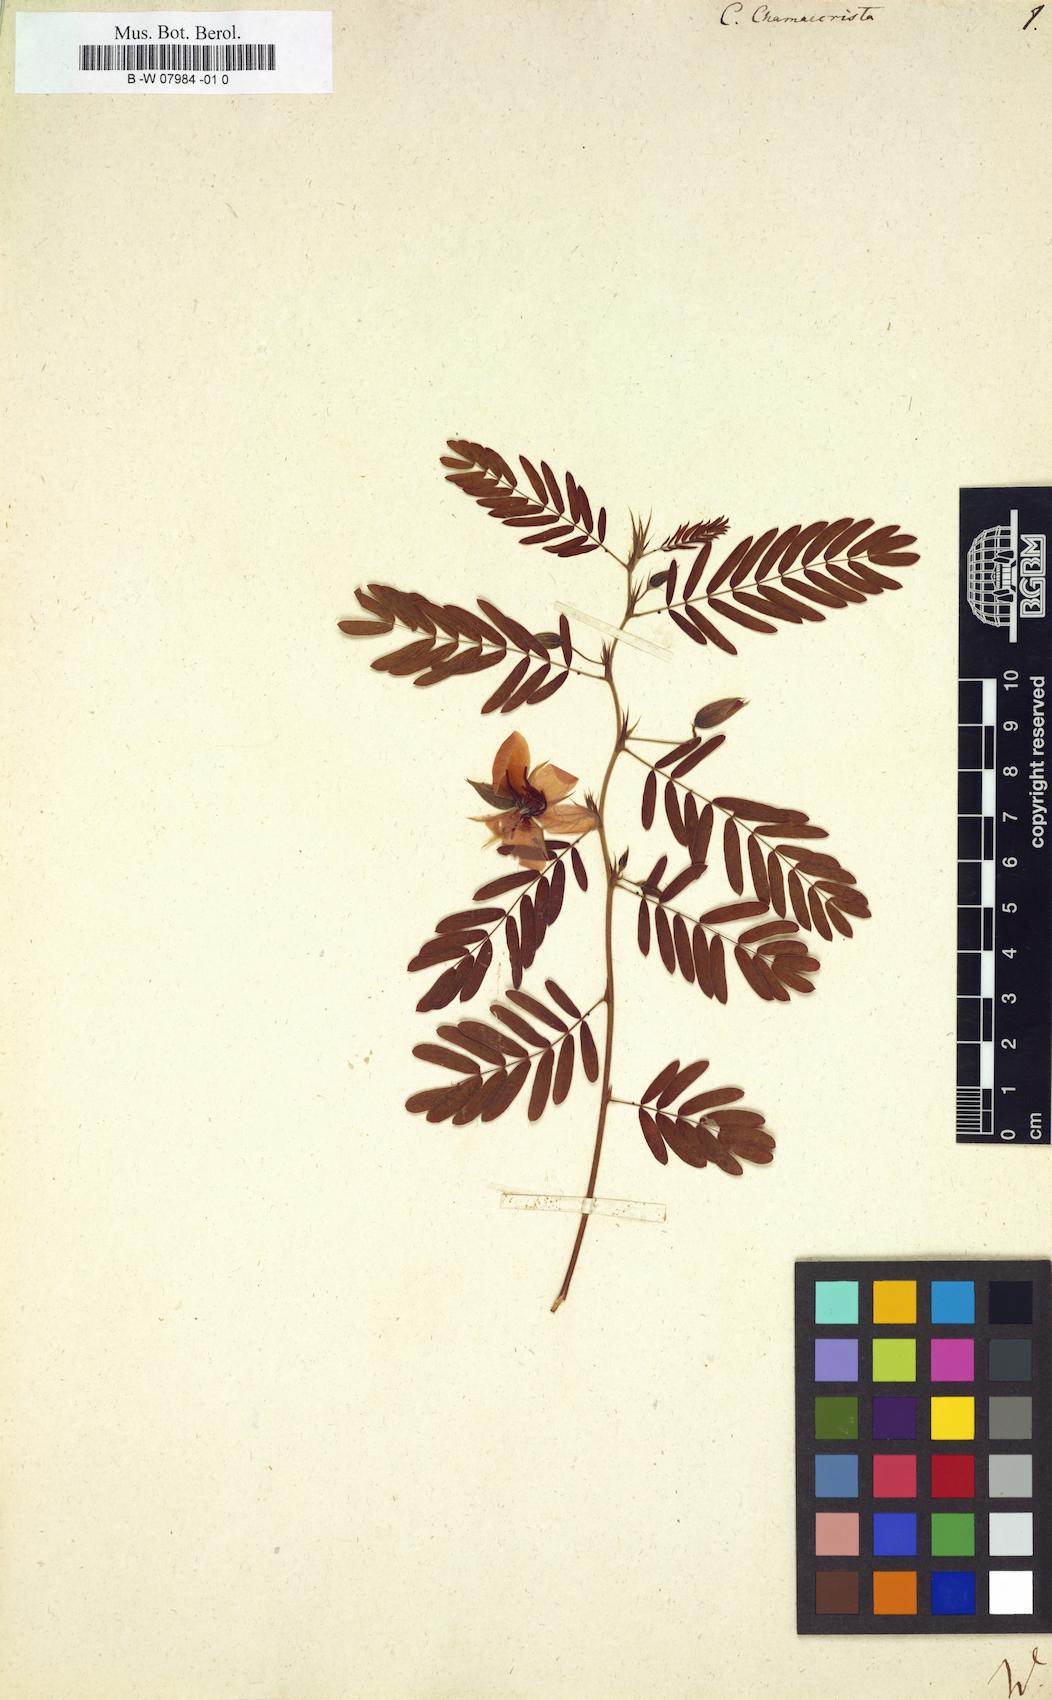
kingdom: Plantae
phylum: Tracheophyta
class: Magnoliopsida
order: Fabales
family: Fabaceae
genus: Chamaecrista
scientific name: Chamaecrista
